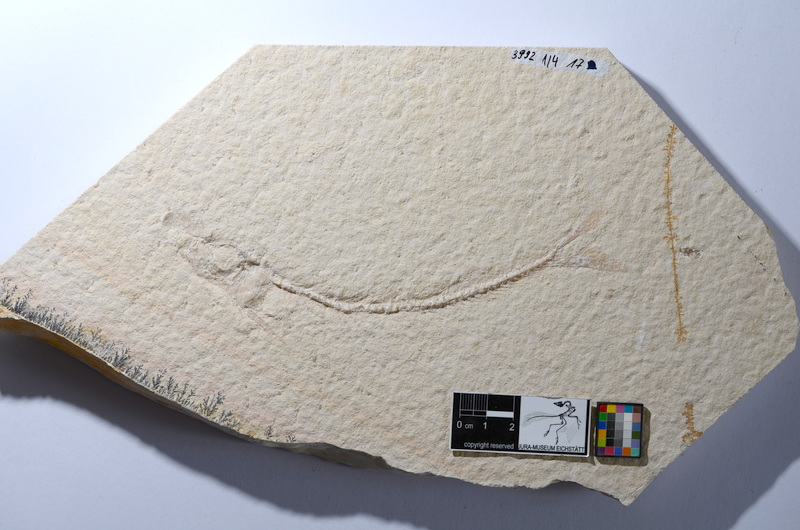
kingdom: Animalia
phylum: Chordata
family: Ascalaboidae
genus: Tharsis
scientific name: Tharsis dubius
